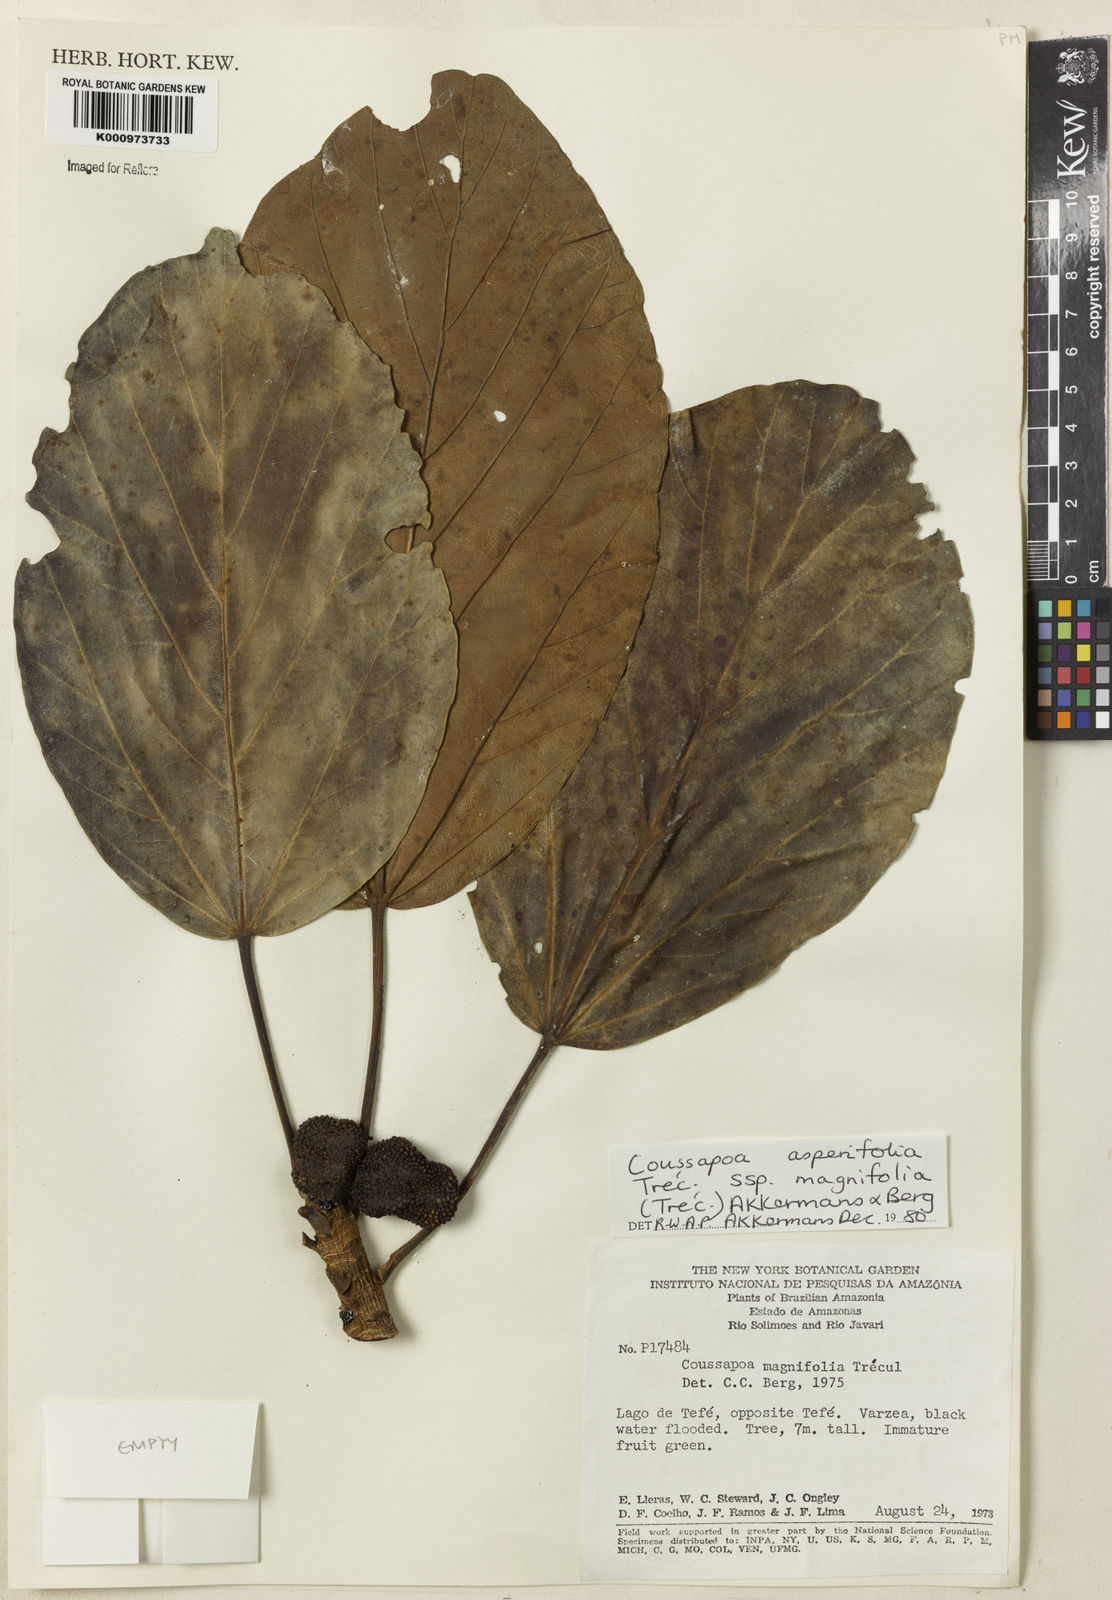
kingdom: Plantae
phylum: Tracheophyta
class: Magnoliopsida
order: Rosales
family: Urticaceae
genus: Coussapoa
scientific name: Coussapoa
